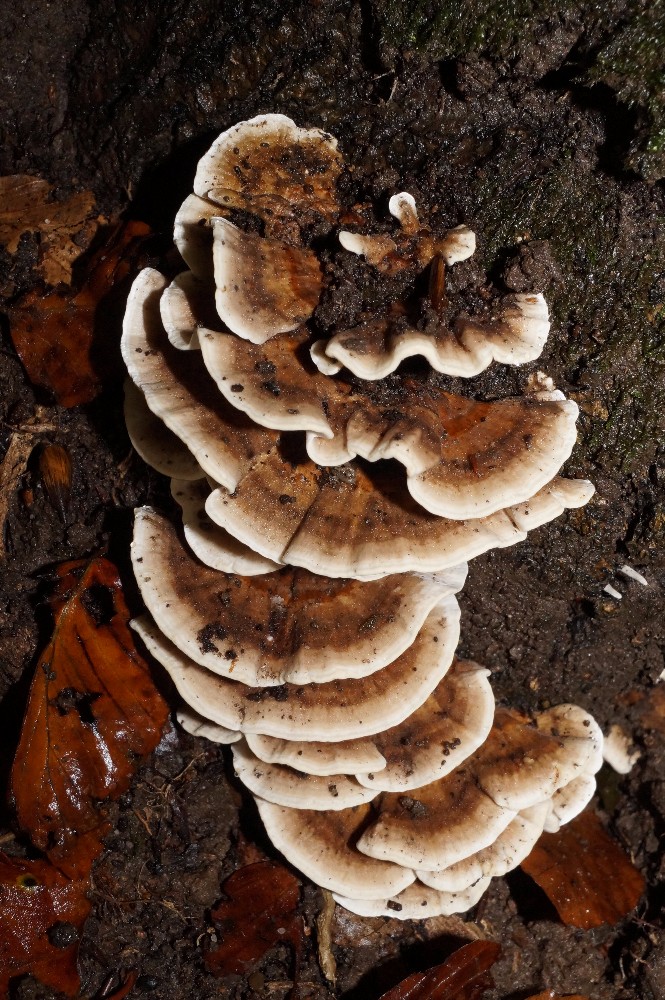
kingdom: Fungi
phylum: Basidiomycota
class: Agaricomycetes
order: Polyporales
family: Polyporaceae
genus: Trametes
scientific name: Trametes versicolor
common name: broget læderporesvamp
